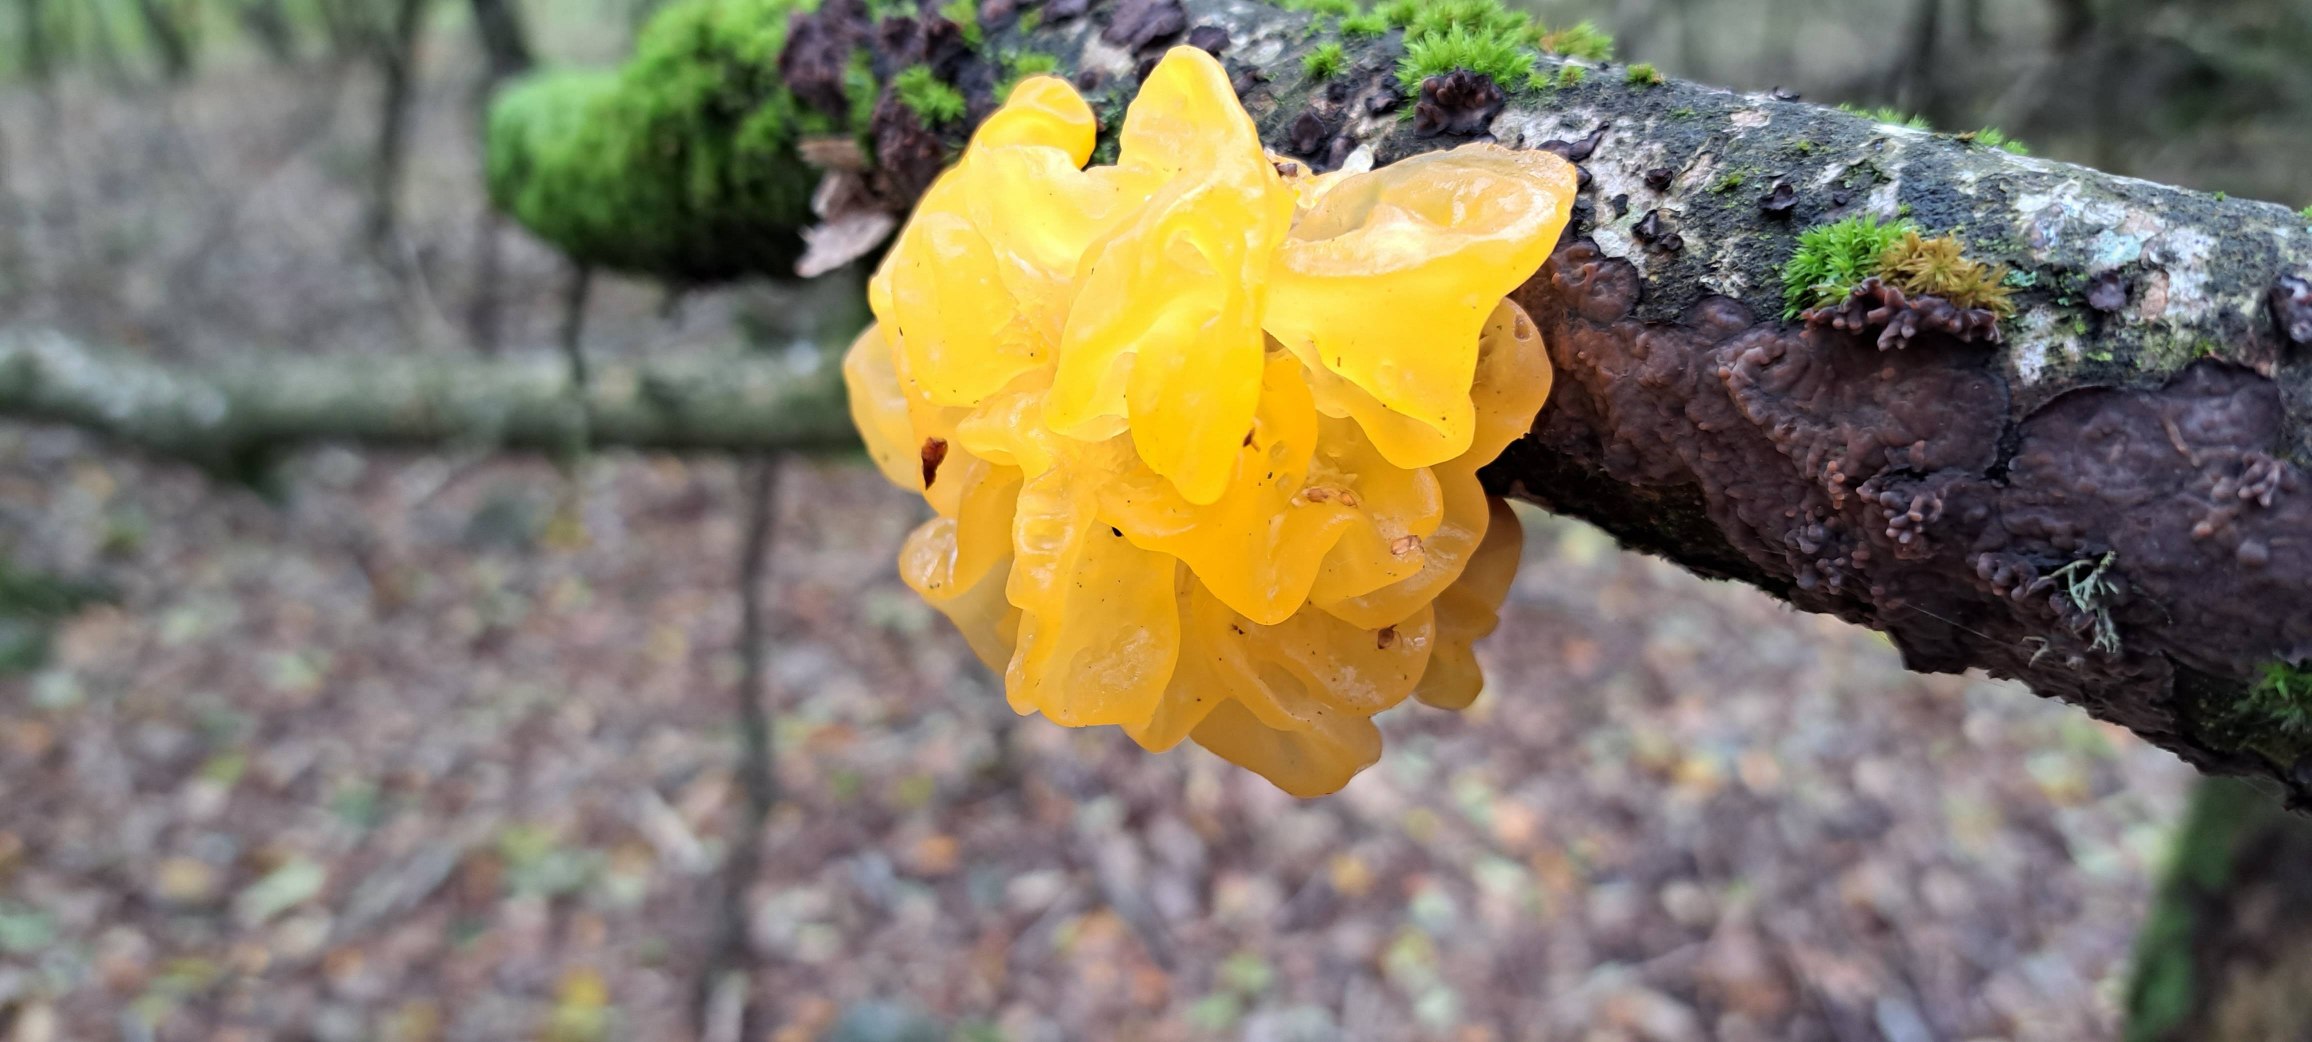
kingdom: Fungi
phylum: Basidiomycota
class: Tremellomycetes
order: Tremellales
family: Tremellaceae
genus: Tremella
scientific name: Tremella mesenterica
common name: Gul bævresvamp
